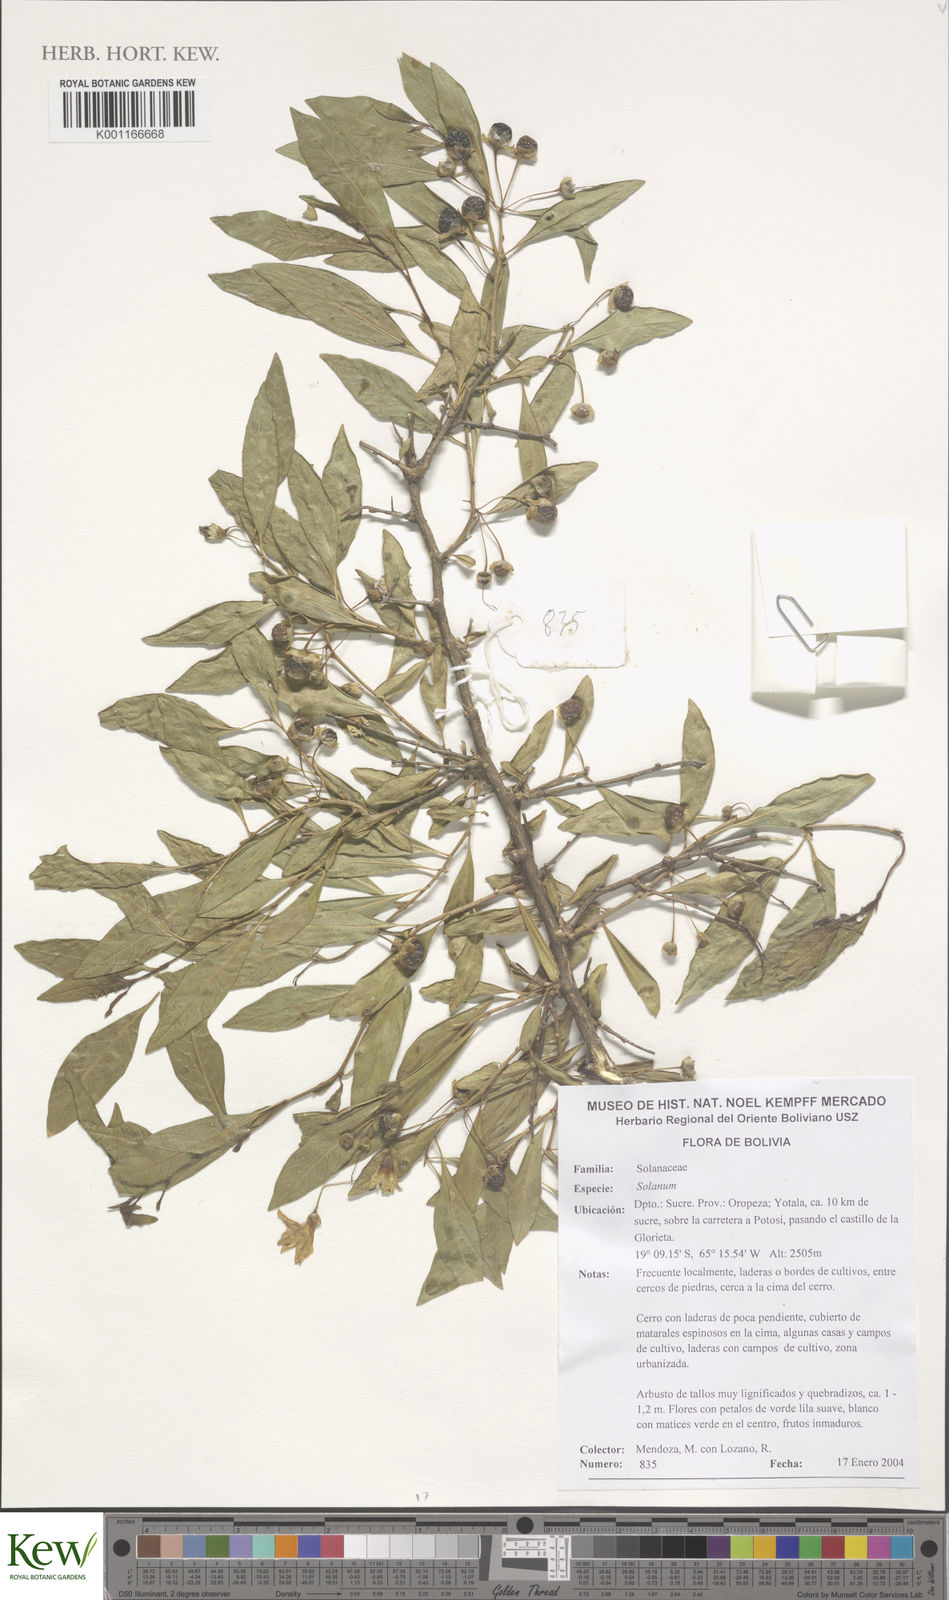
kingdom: Plantae
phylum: Tracheophyta
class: Magnoliopsida
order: Solanales
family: Solanaceae
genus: Solanum
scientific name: Solanum
